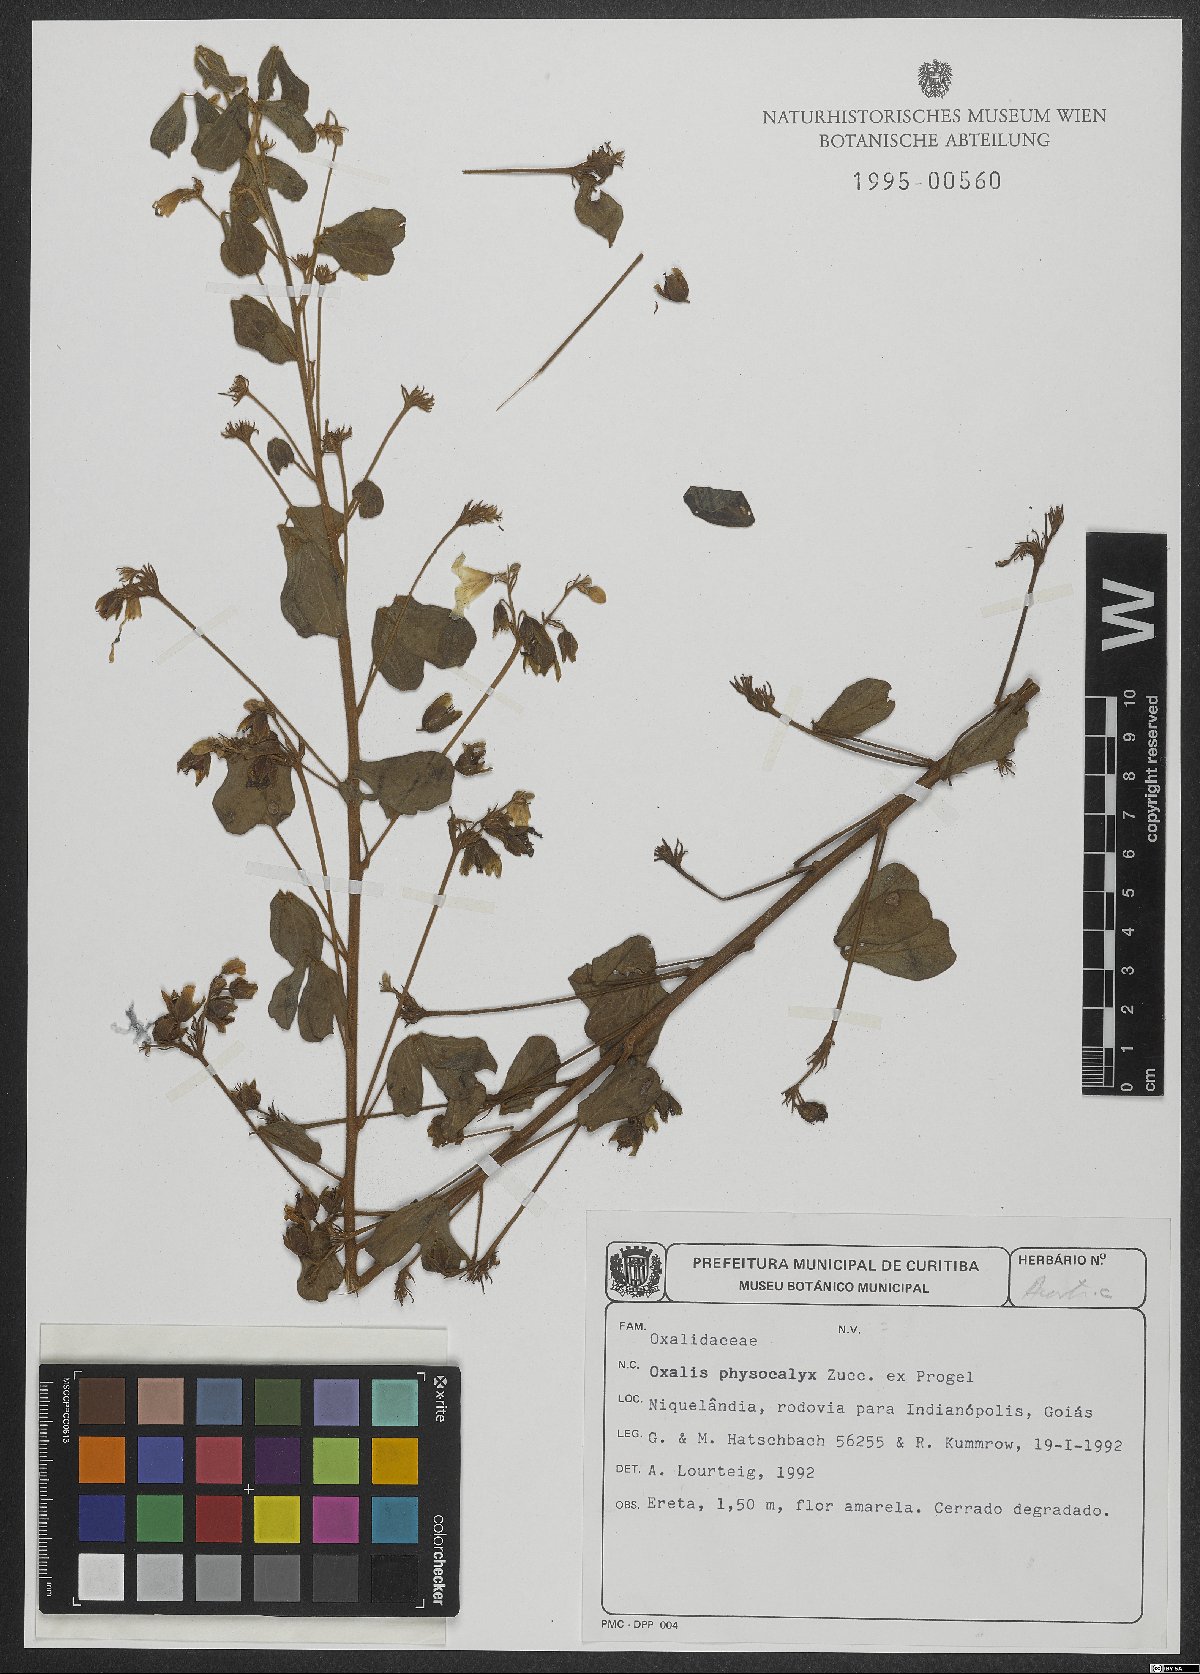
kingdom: Plantae
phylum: Tracheophyta
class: Magnoliopsida
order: Oxalidales
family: Oxalidaceae
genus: Oxalis
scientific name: Oxalis physocalyx
